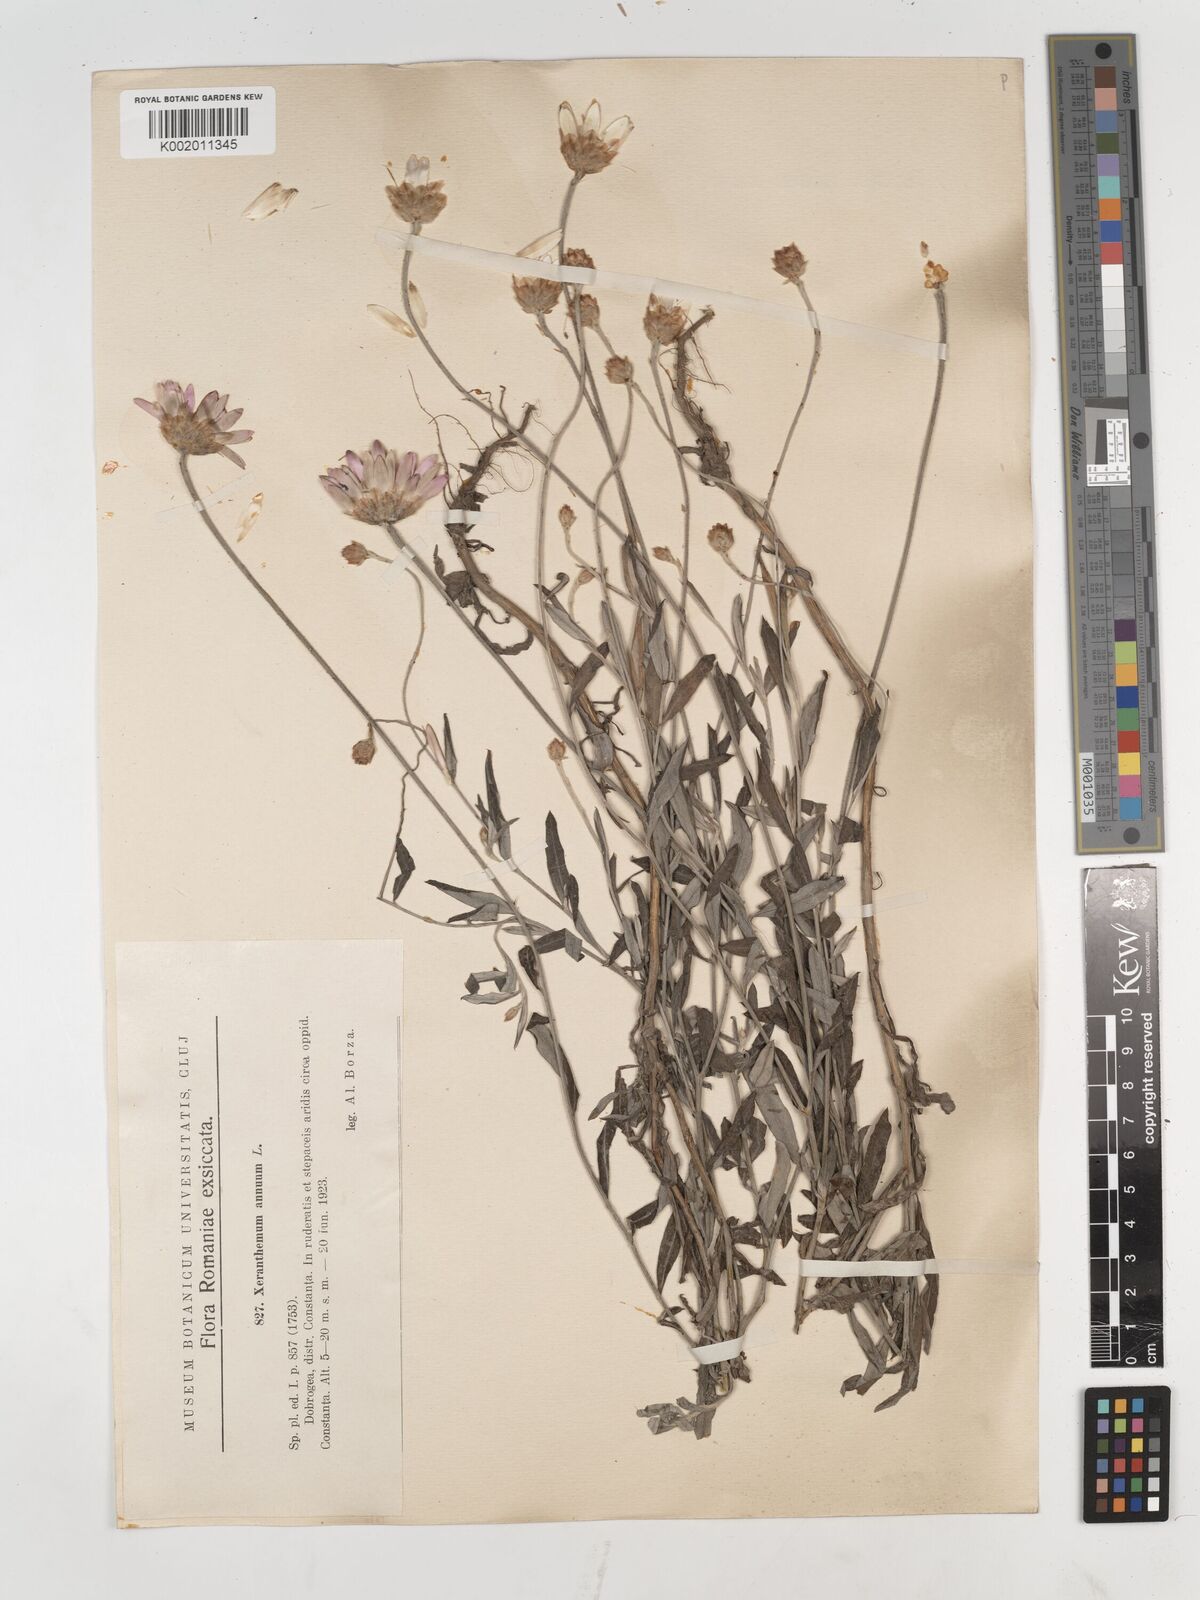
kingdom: Plantae
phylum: Tracheophyta
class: Magnoliopsida
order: Asterales
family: Asteraceae
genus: Xeranthemum
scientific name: Xeranthemum annuum
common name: Immortelle
